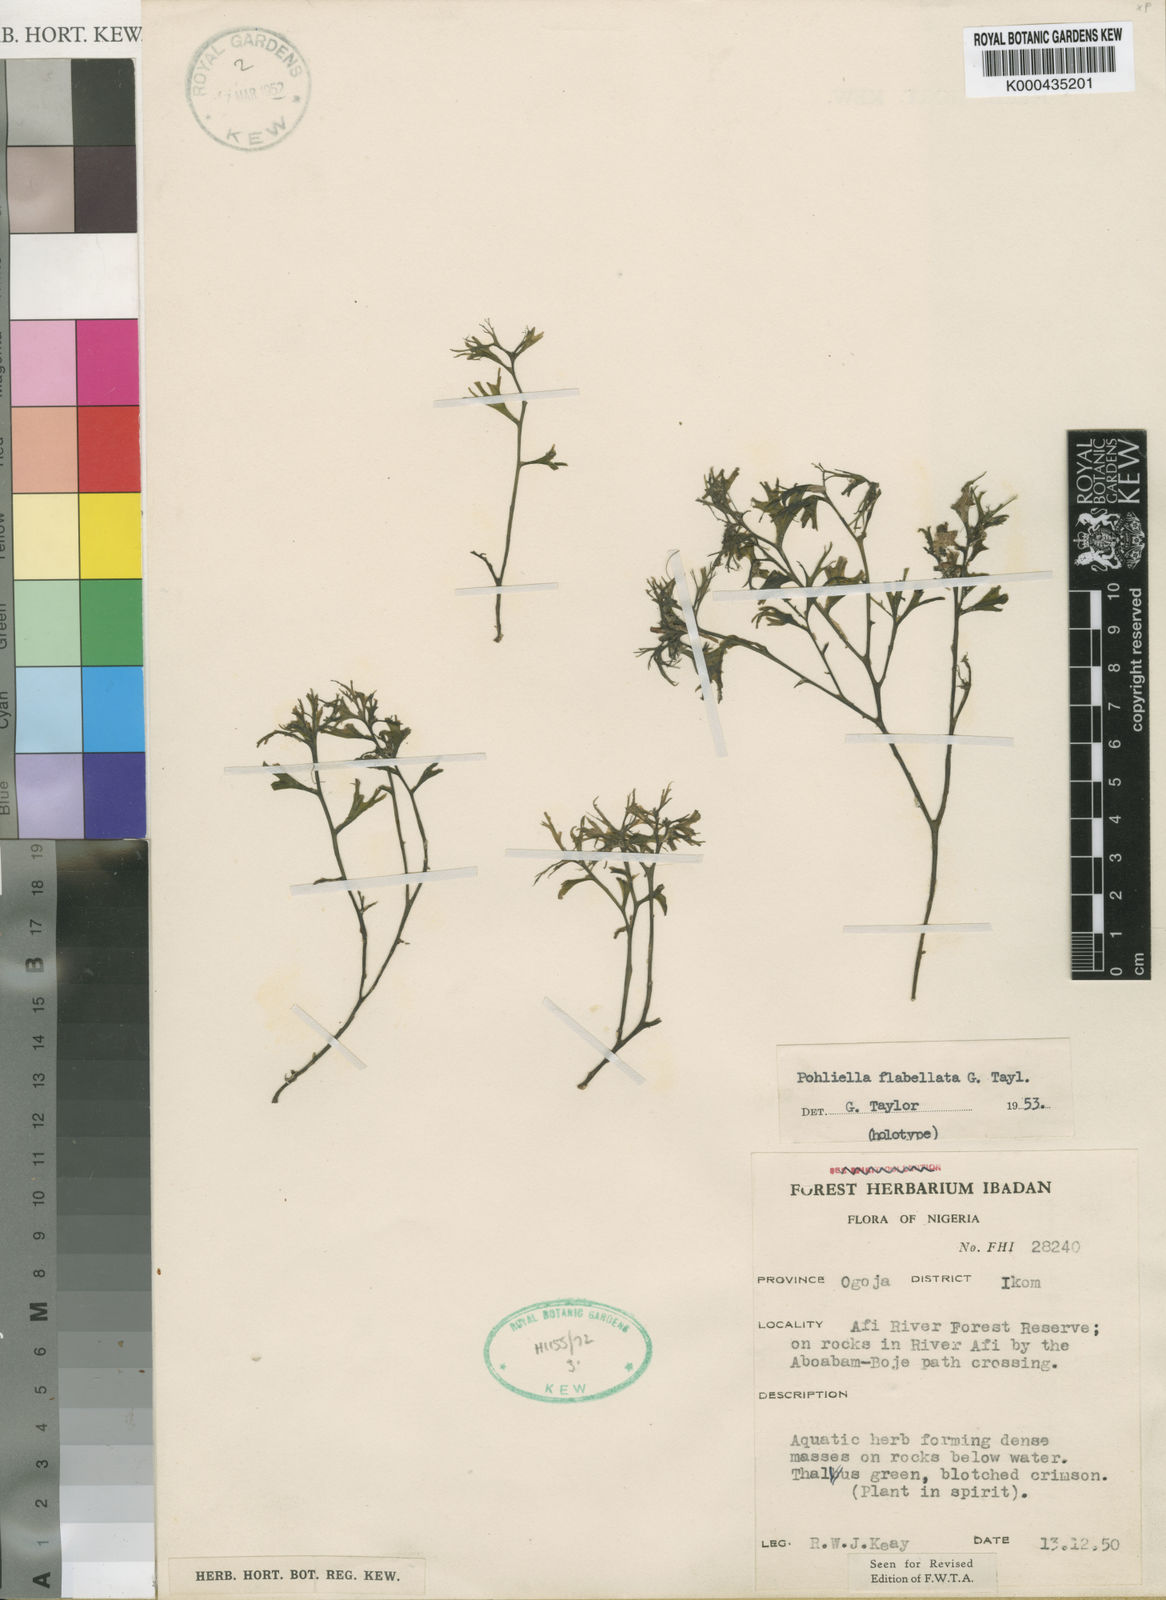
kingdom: Plantae
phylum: Tracheophyta
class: Magnoliopsida
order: Malpighiales
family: Podostemaceae
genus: Saxicolella
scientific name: Saxicolella flabellata
